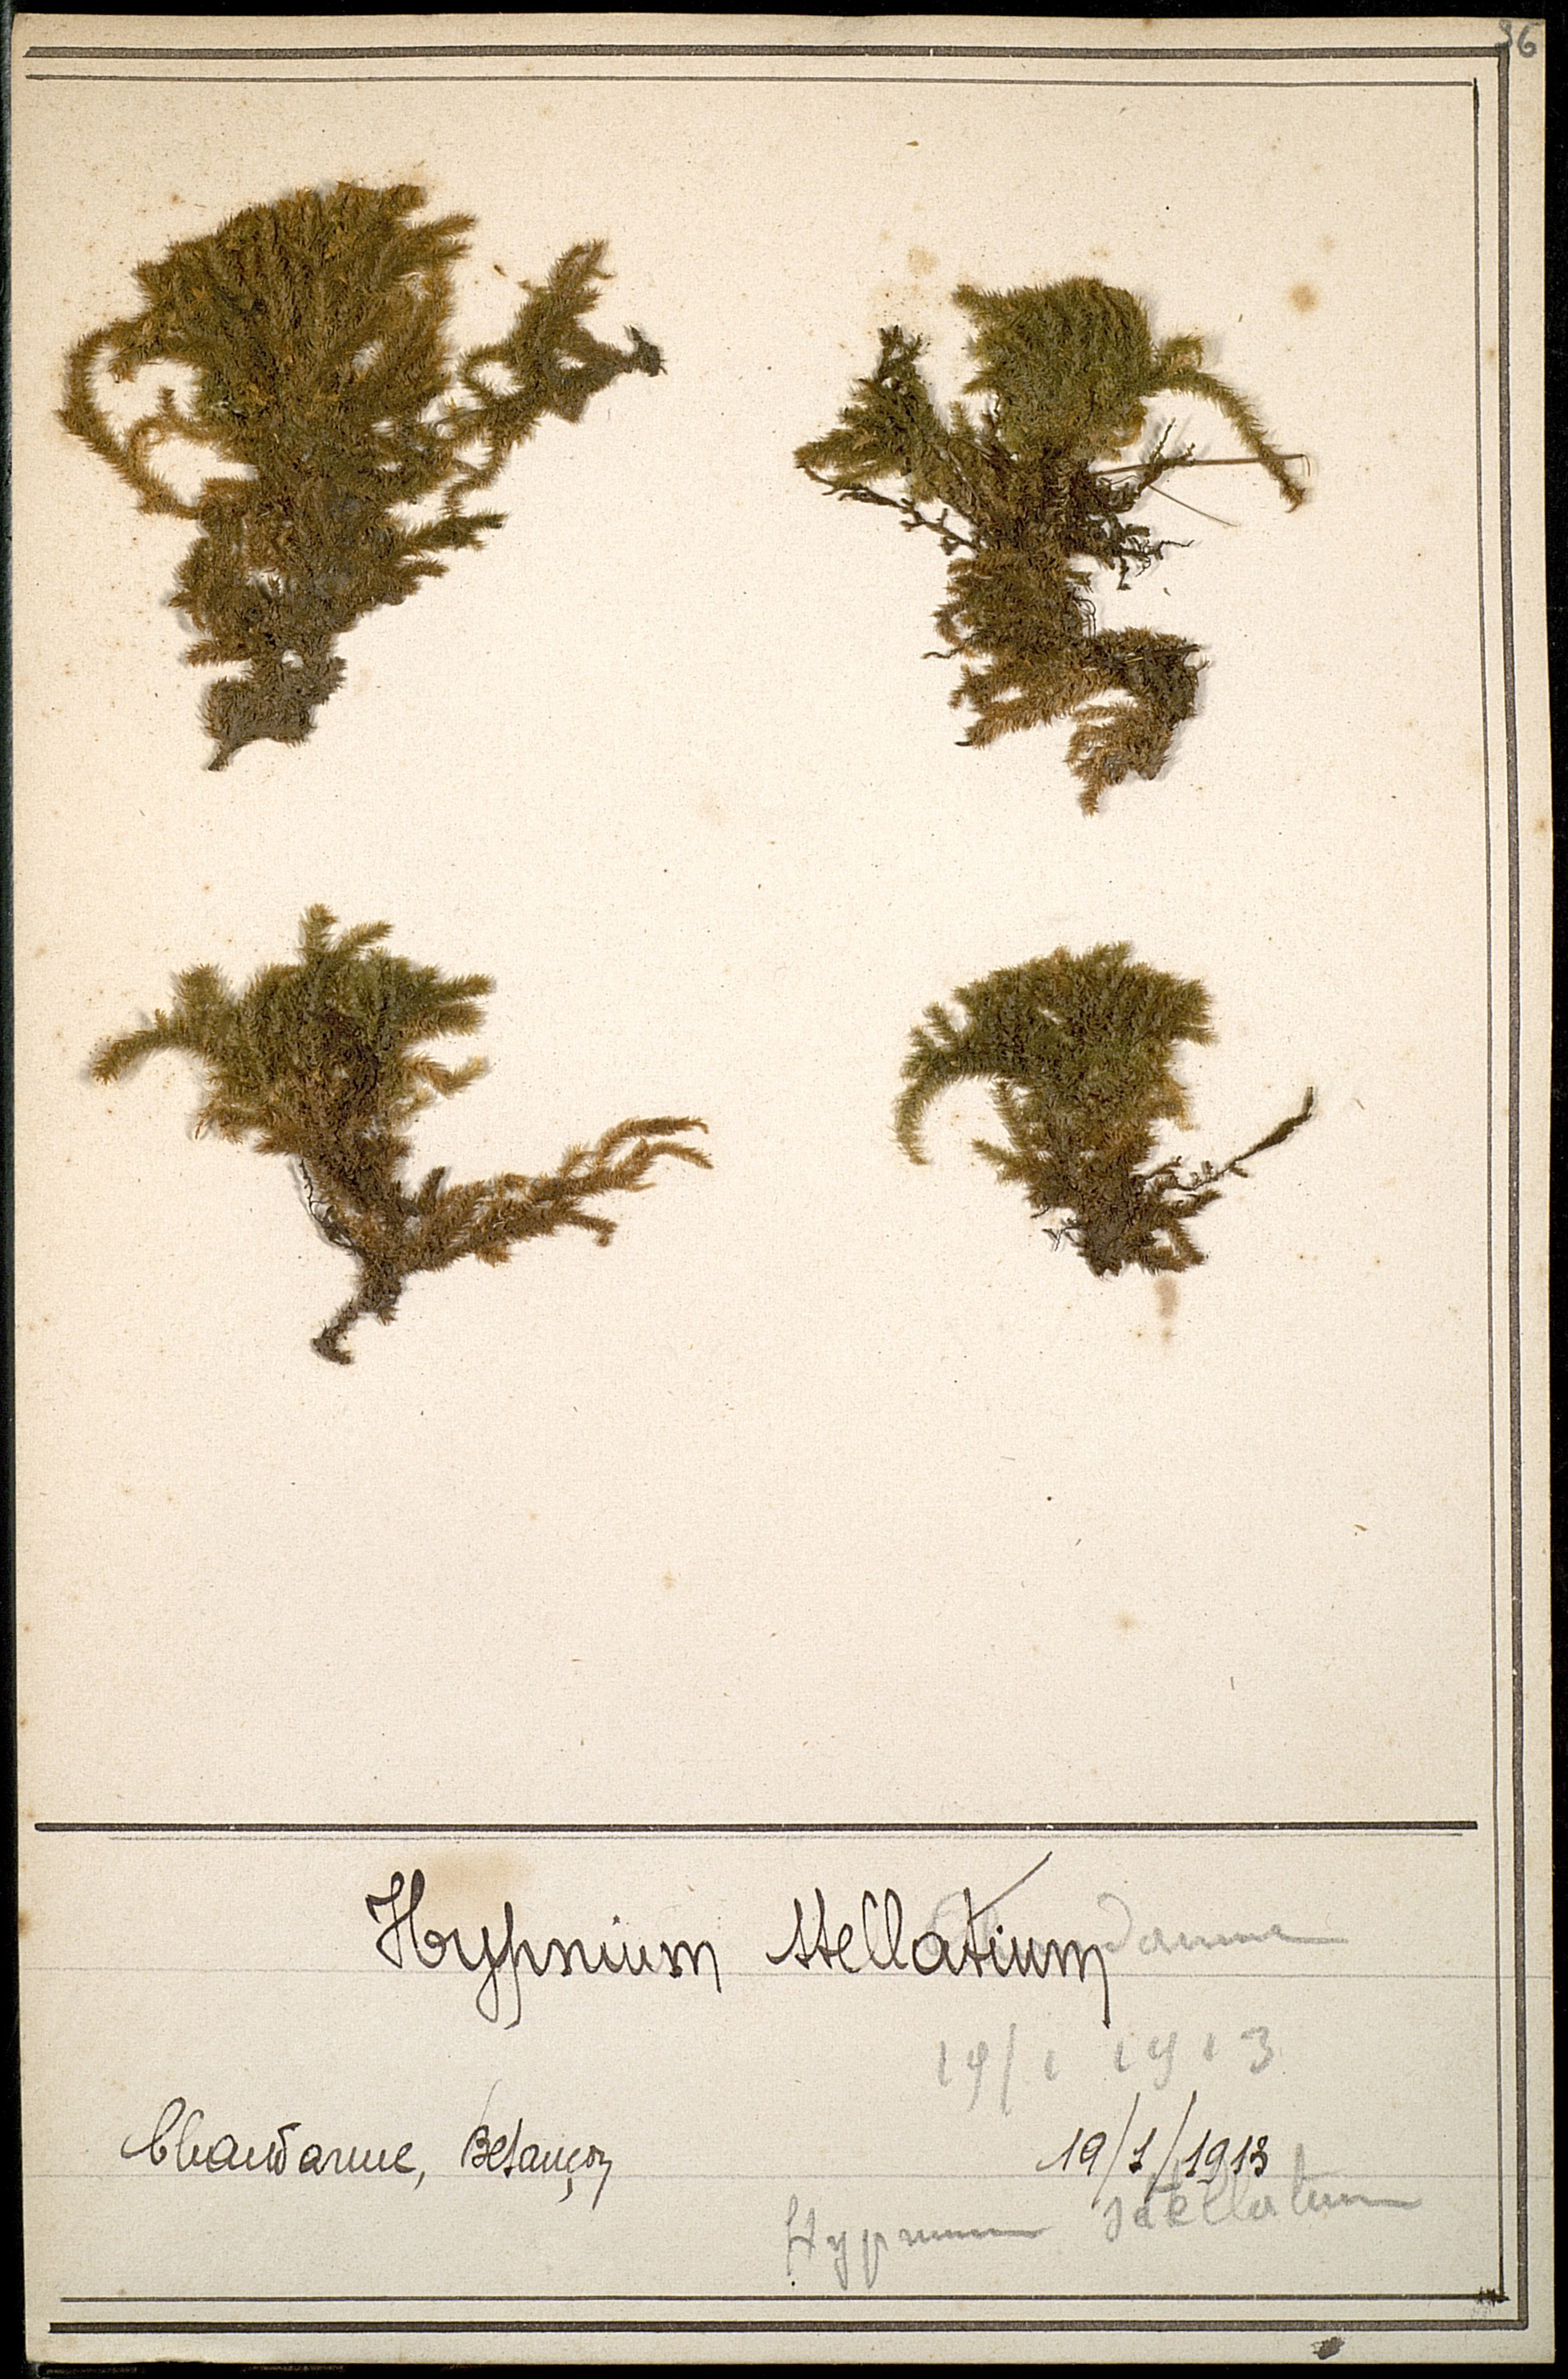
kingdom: Plantae
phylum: Bryophyta
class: Bryopsida
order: Hypnales
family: Amblystegiaceae
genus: Campylium
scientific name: Campylium stellatum
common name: Yellow starry fen moss
